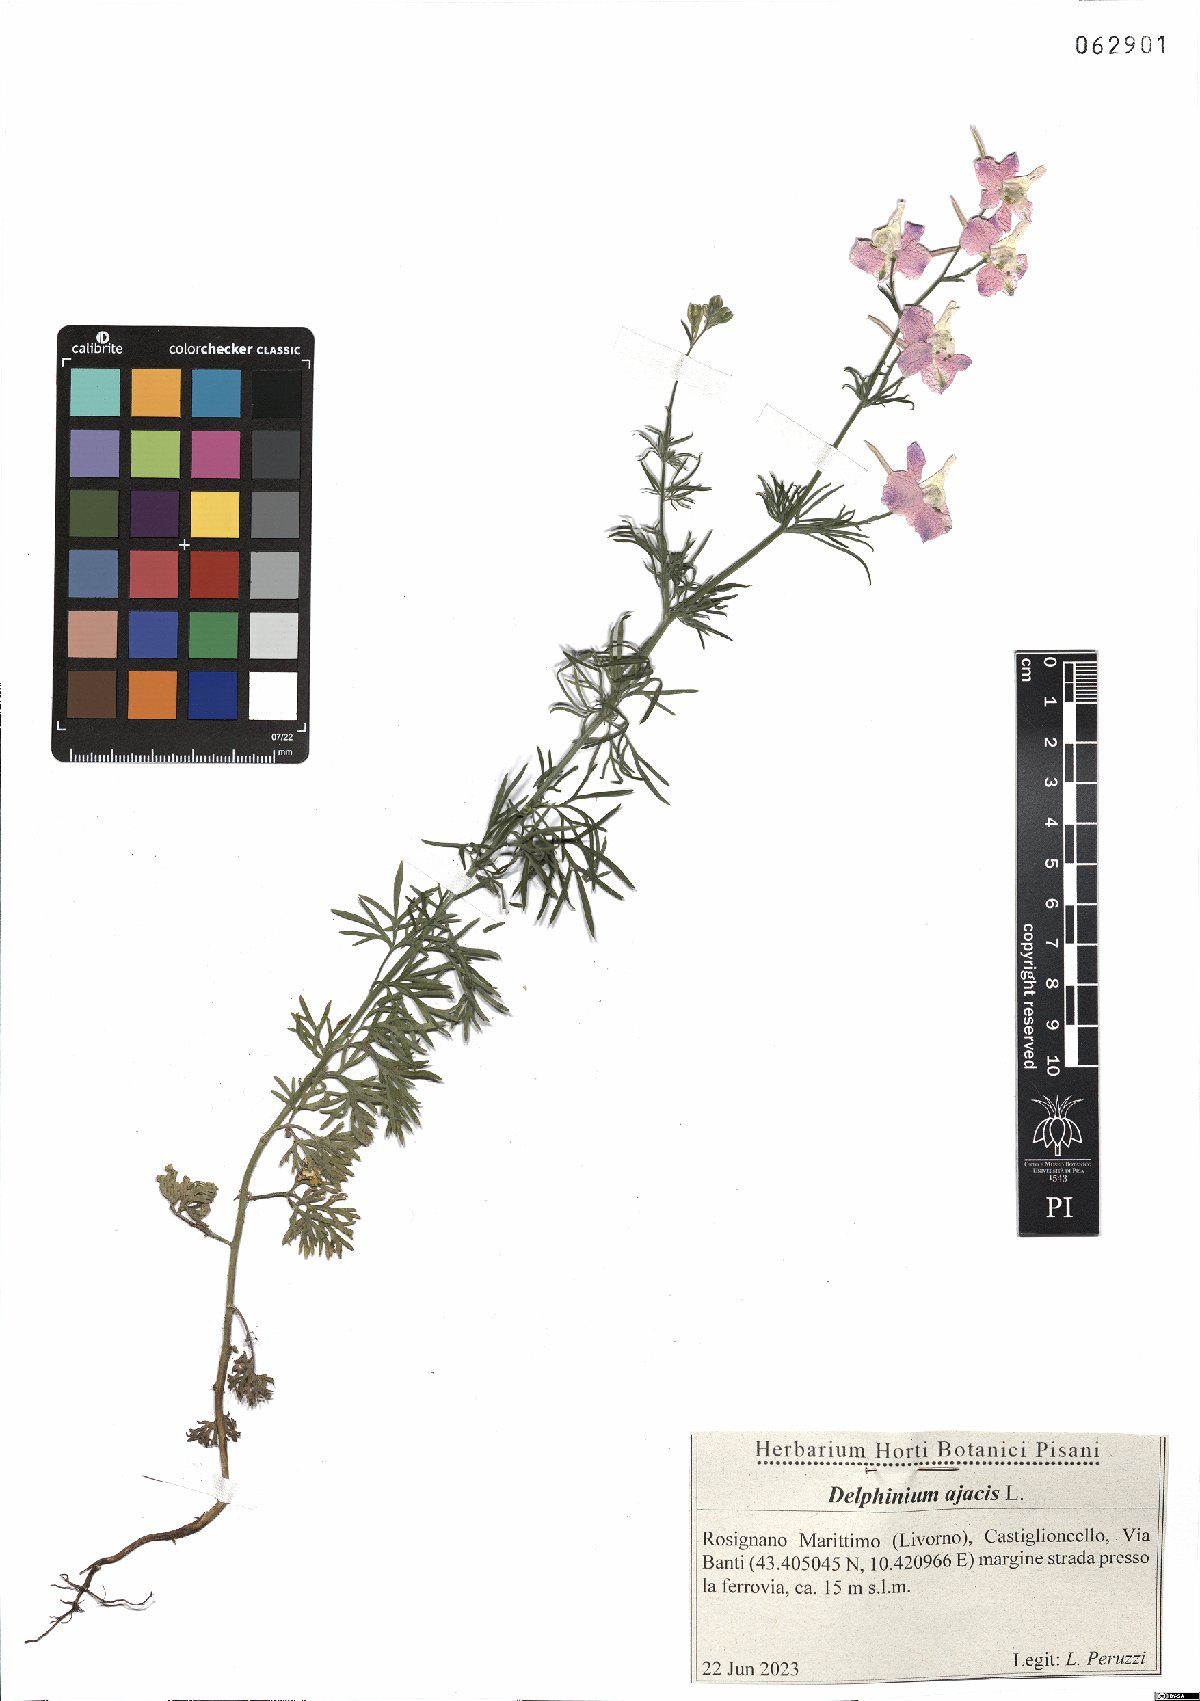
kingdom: Plantae
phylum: Tracheophyta
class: Magnoliopsida
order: Ranunculales
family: Ranunculaceae
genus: Delphinium
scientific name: Delphinium ajacis
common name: Doubtful knight's-spur
